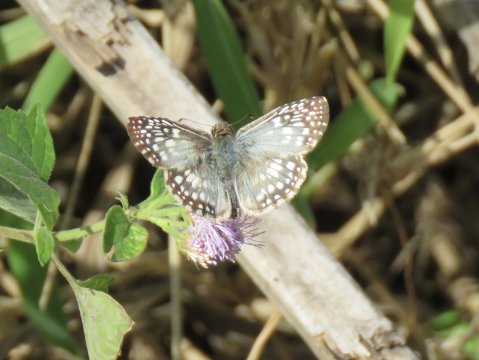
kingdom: Animalia
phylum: Arthropoda
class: Insecta
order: Lepidoptera
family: Hesperiidae
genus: Pyrgus
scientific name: Pyrgus oileus
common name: Tropical Checkered-Skipper
